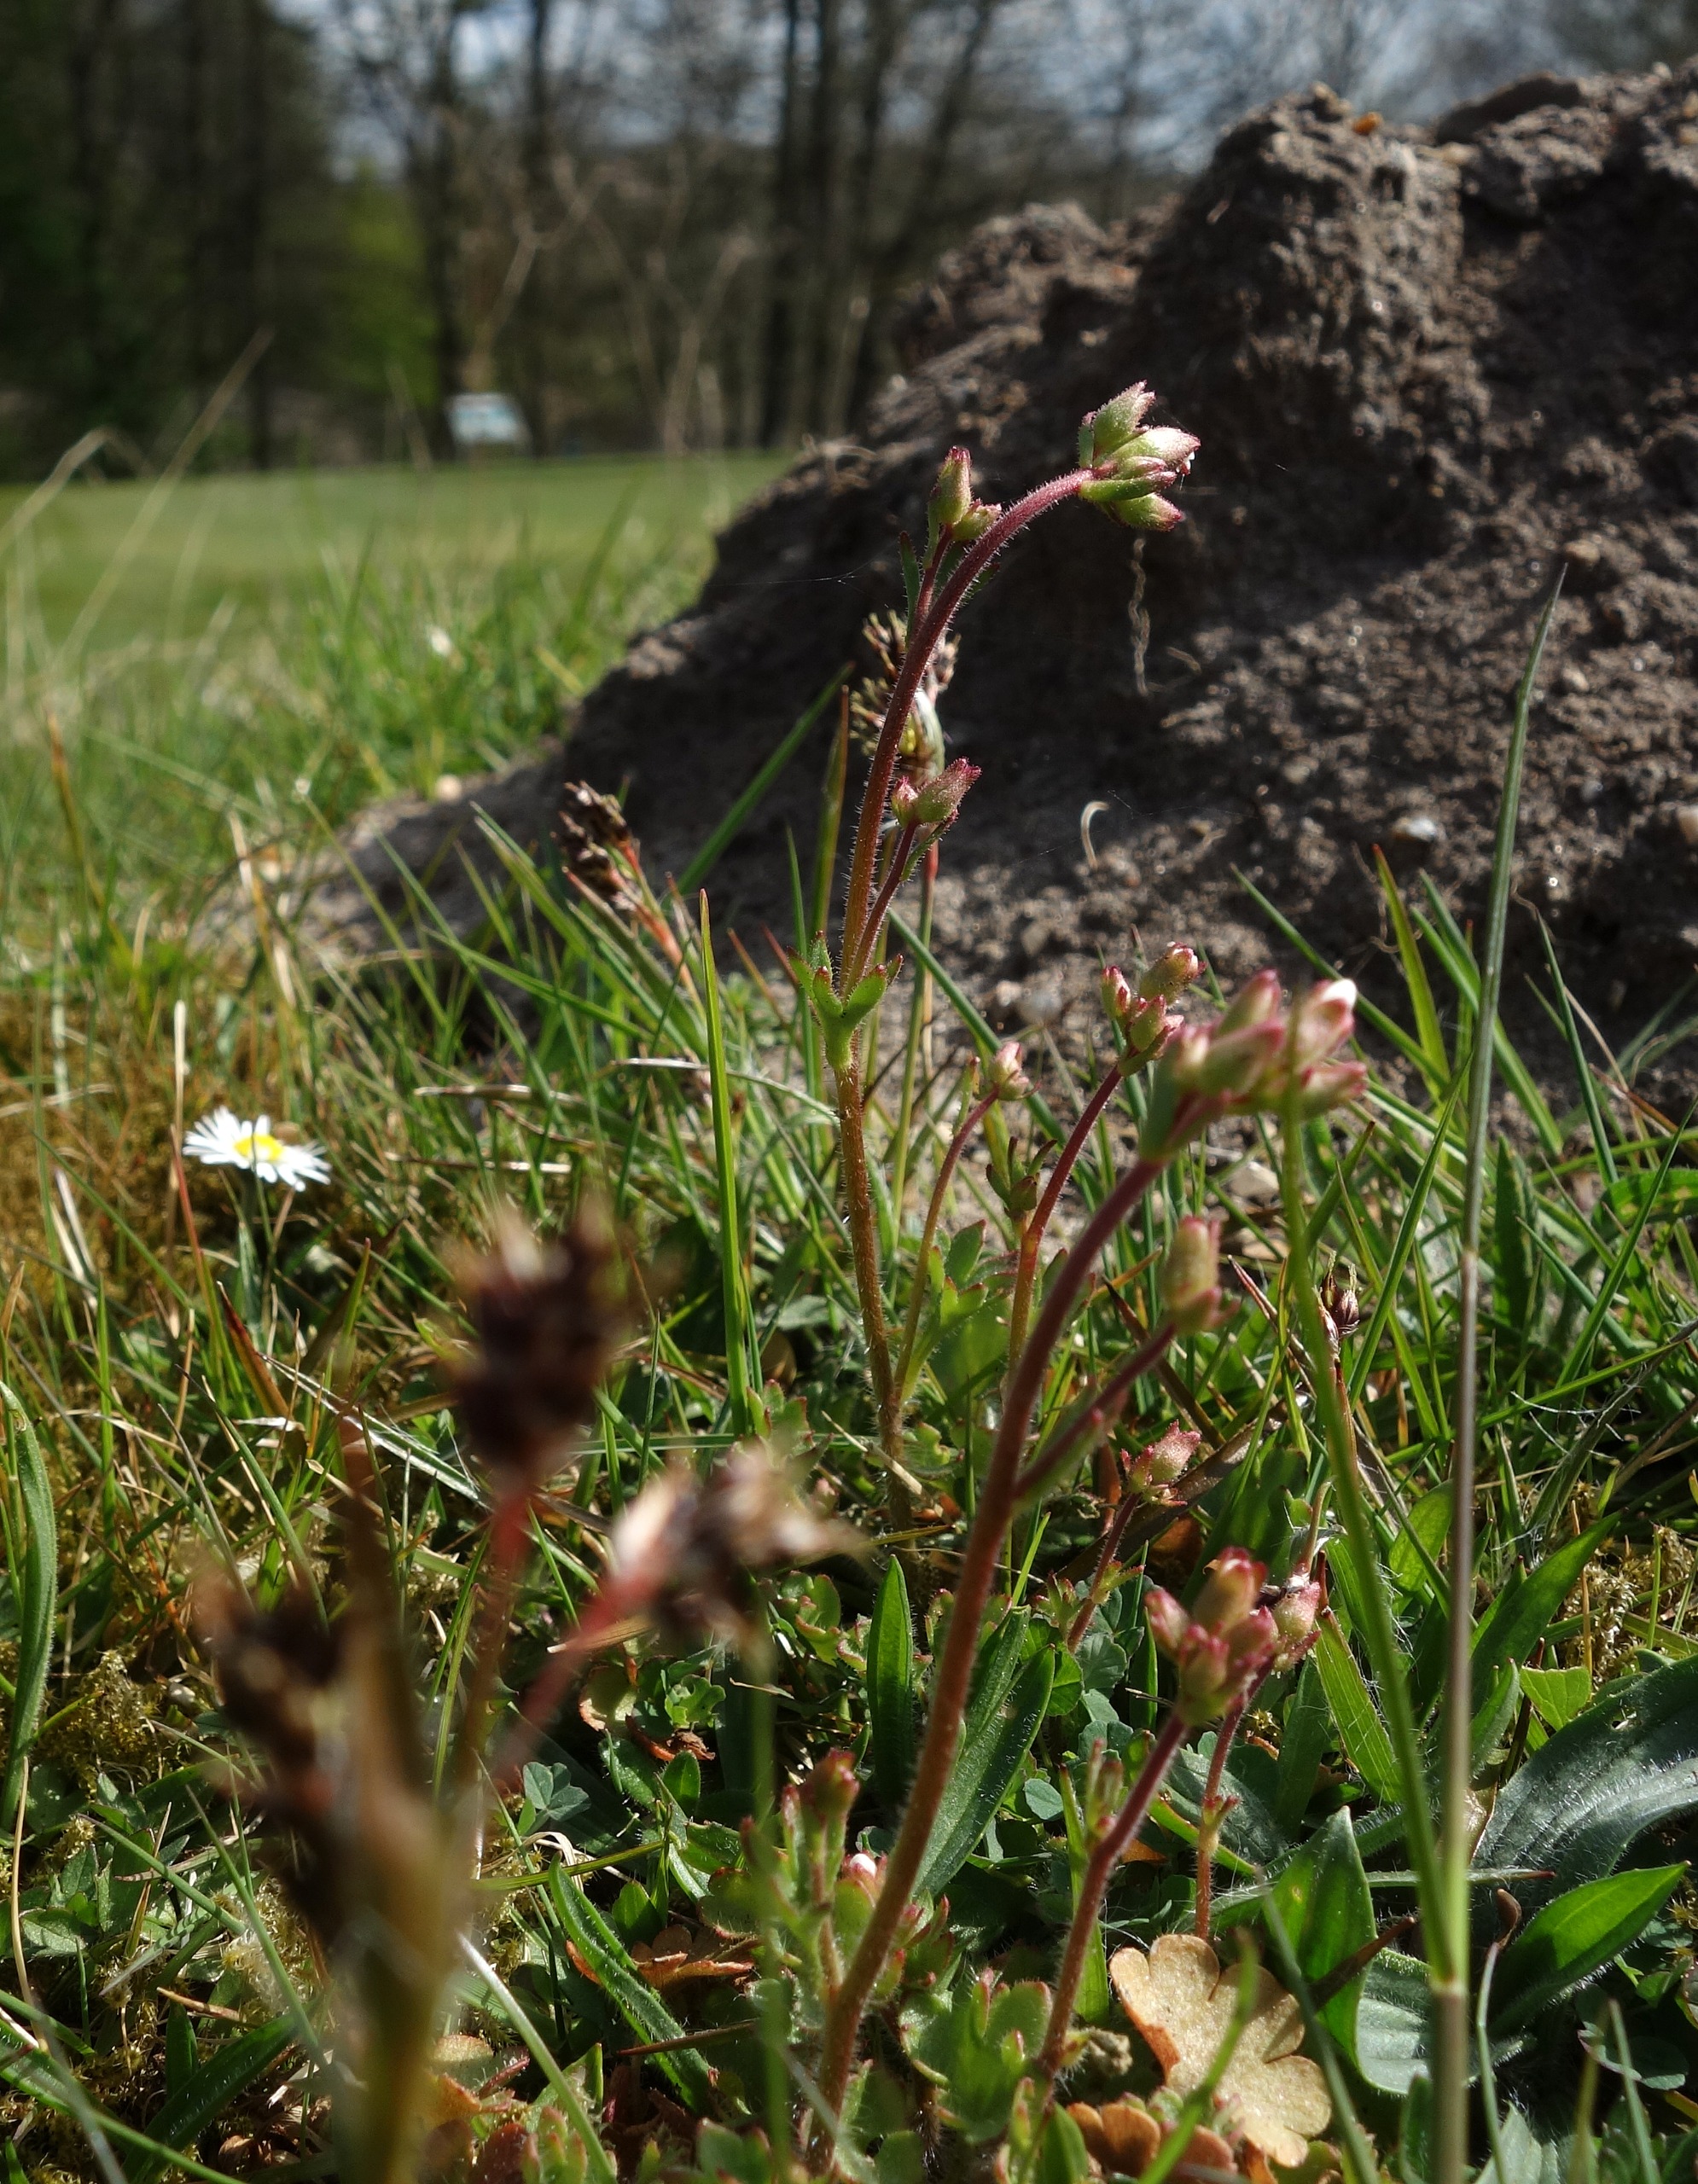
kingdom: Plantae
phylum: Tracheophyta
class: Magnoliopsida
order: Saxifragales
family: Saxifragaceae
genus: Saxifraga
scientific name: Saxifraga granulata
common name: Kornet stenbræk
